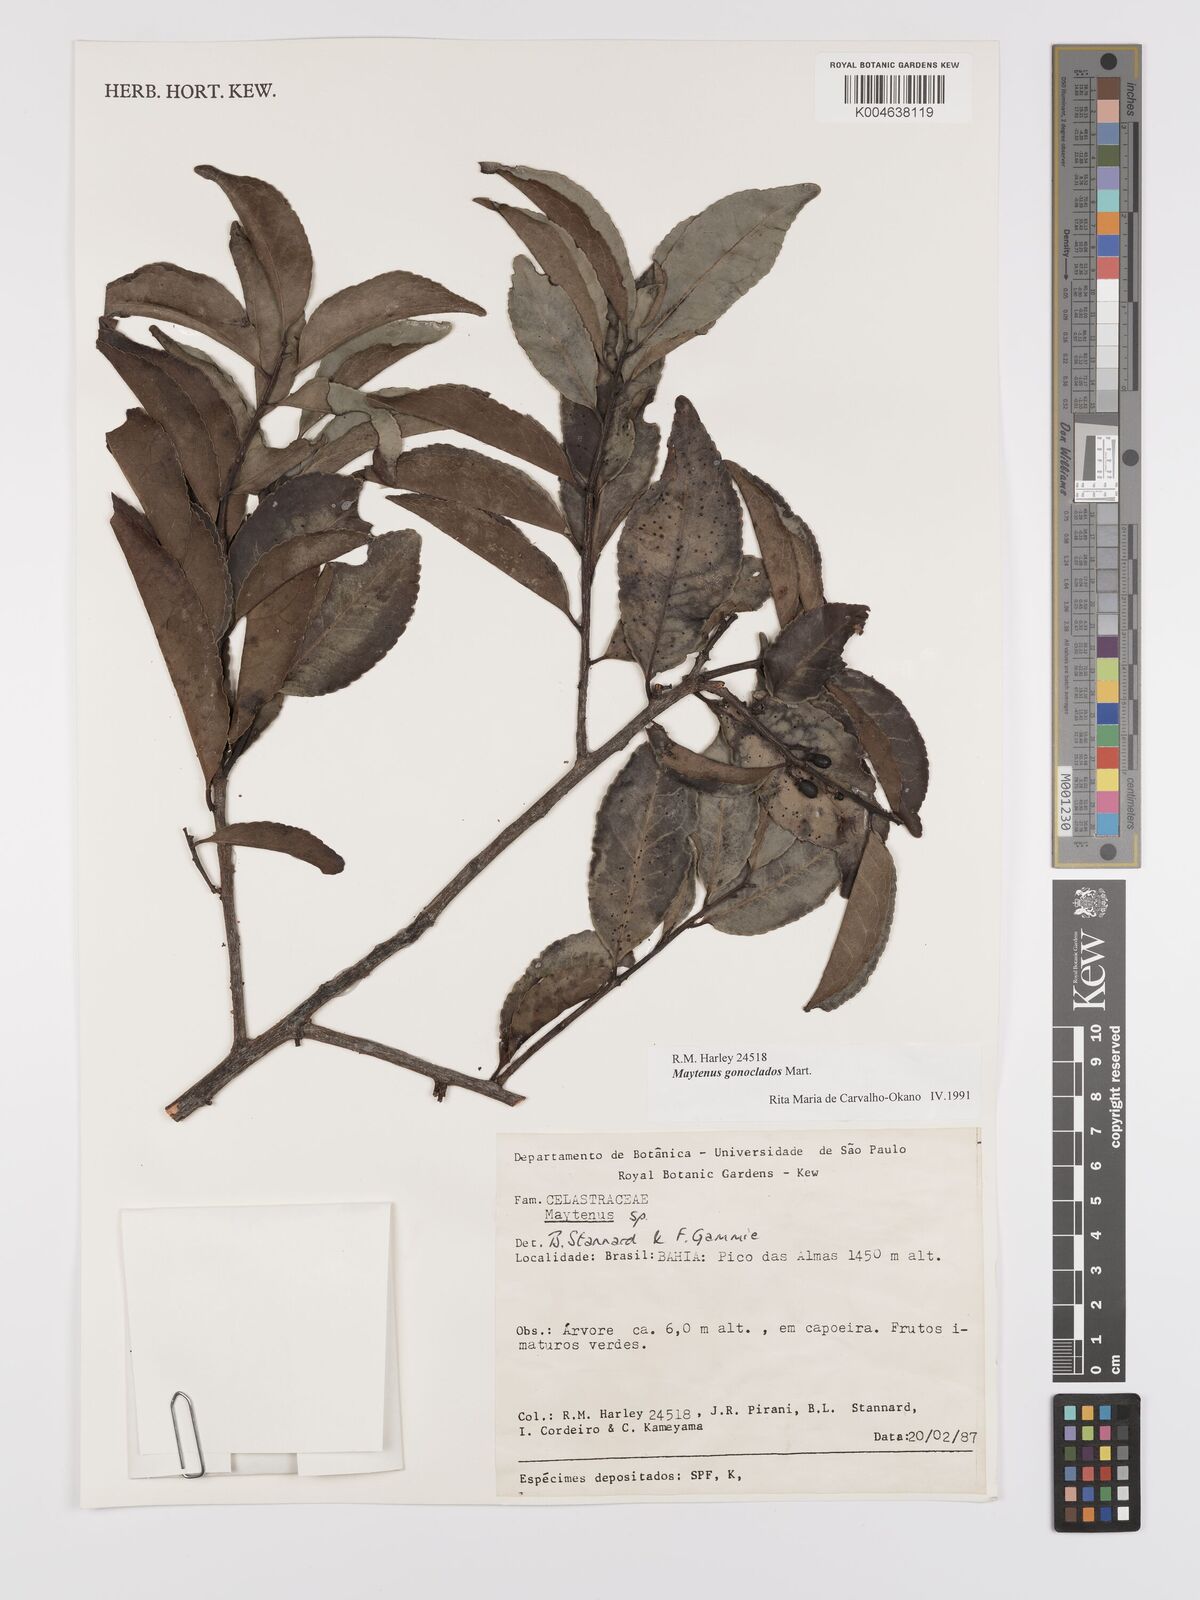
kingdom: Plantae
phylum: Tracheophyta
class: Magnoliopsida
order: Celastrales
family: Celastraceae
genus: Monteverdia
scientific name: Monteverdia gonoclada
